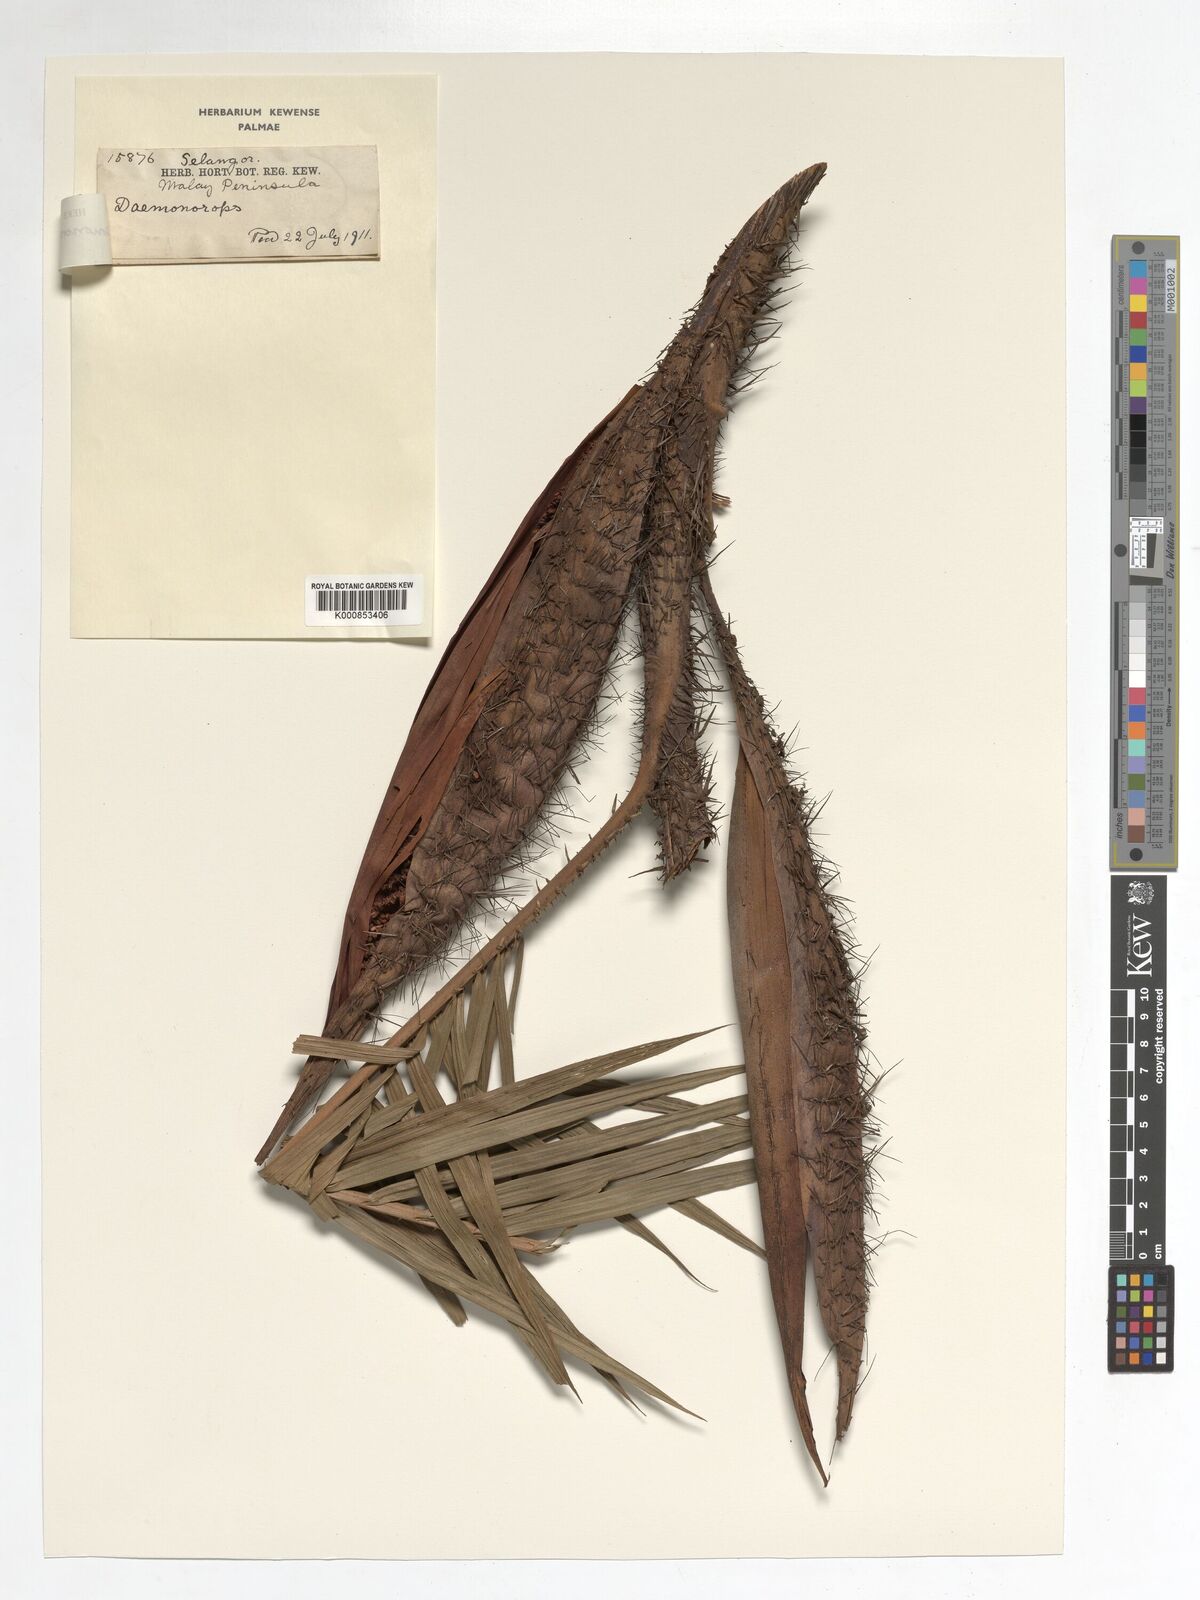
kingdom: Plantae
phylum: Tracheophyta
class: Liliopsida
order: Arecales
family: Arecaceae
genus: Calamus
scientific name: Calamus melanochaetes
